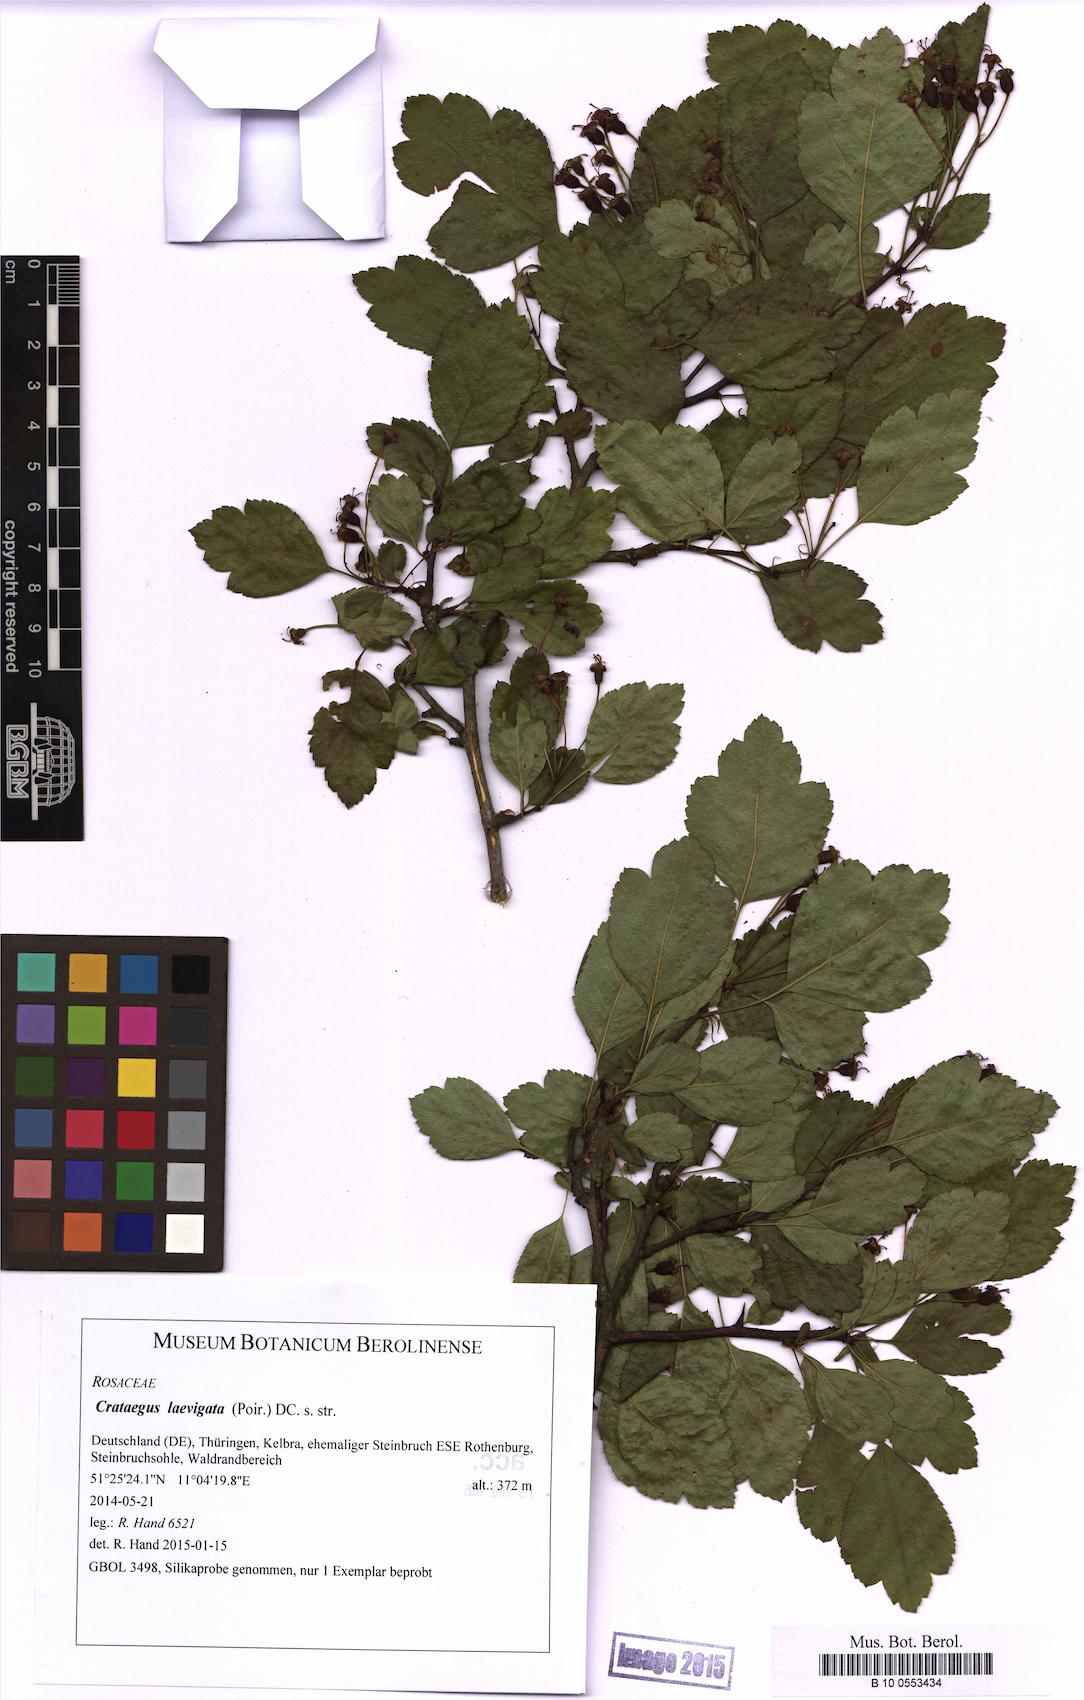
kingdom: Plantae
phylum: Tracheophyta
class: Magnoliopsida
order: Rosales
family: Rosaceae
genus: Crataegus
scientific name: Crataegus laevigata
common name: Midland hawthorn
